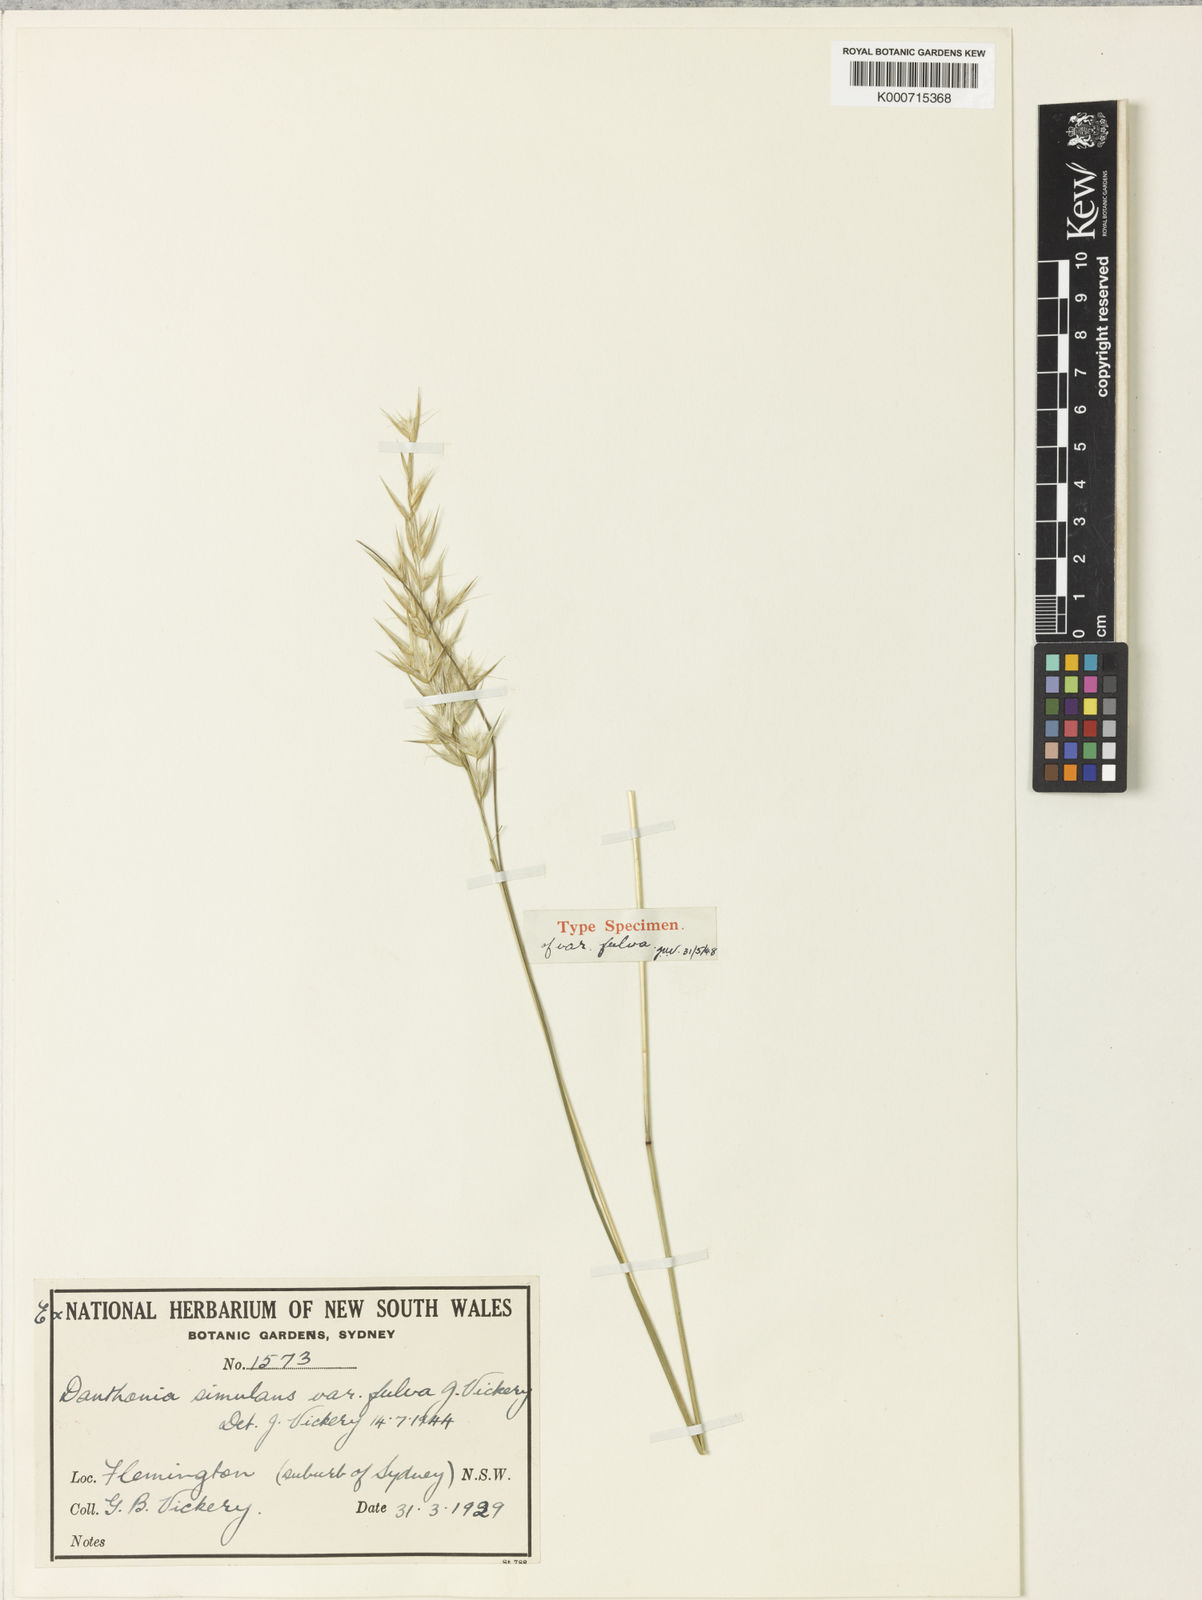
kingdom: Plantae
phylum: Tracheophyta
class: Liliopsida
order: Poales
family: Poaceae
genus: Rytidosperma
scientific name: Rytidosperma bipartitum
